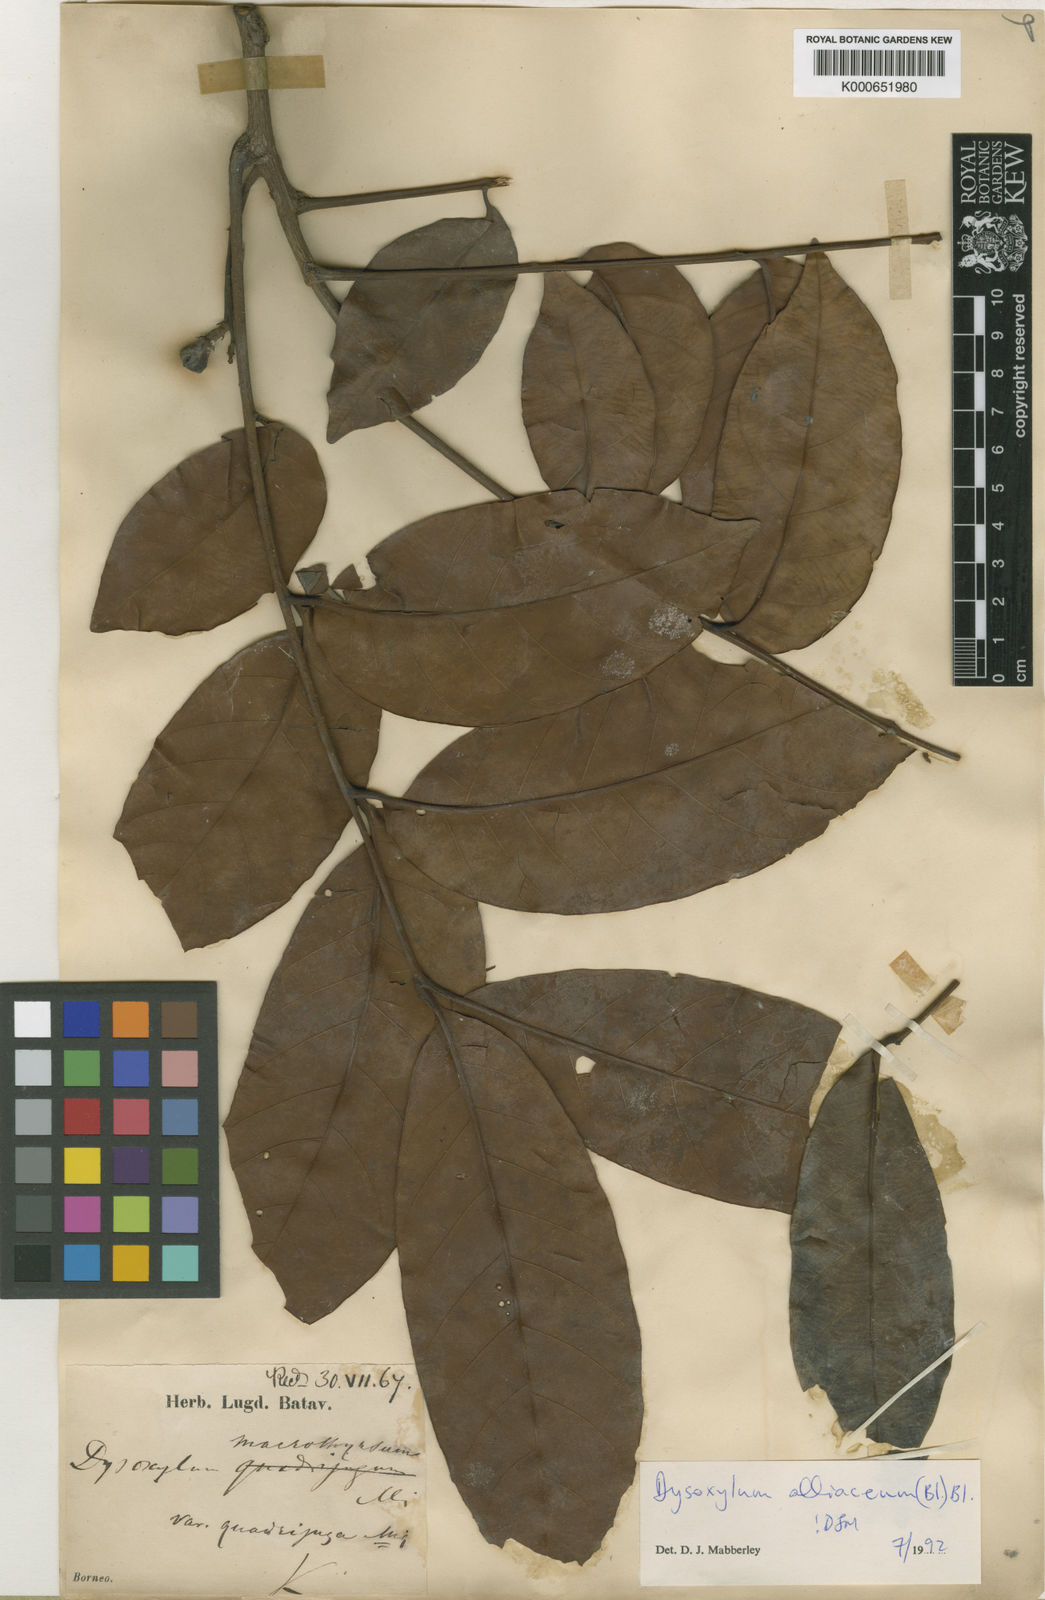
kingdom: Plantae
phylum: Tracheophyta
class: Magnoliopsida
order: Sapindales
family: Meliaceae
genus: Prasoxylon
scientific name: Prasoxylon alliaceum
